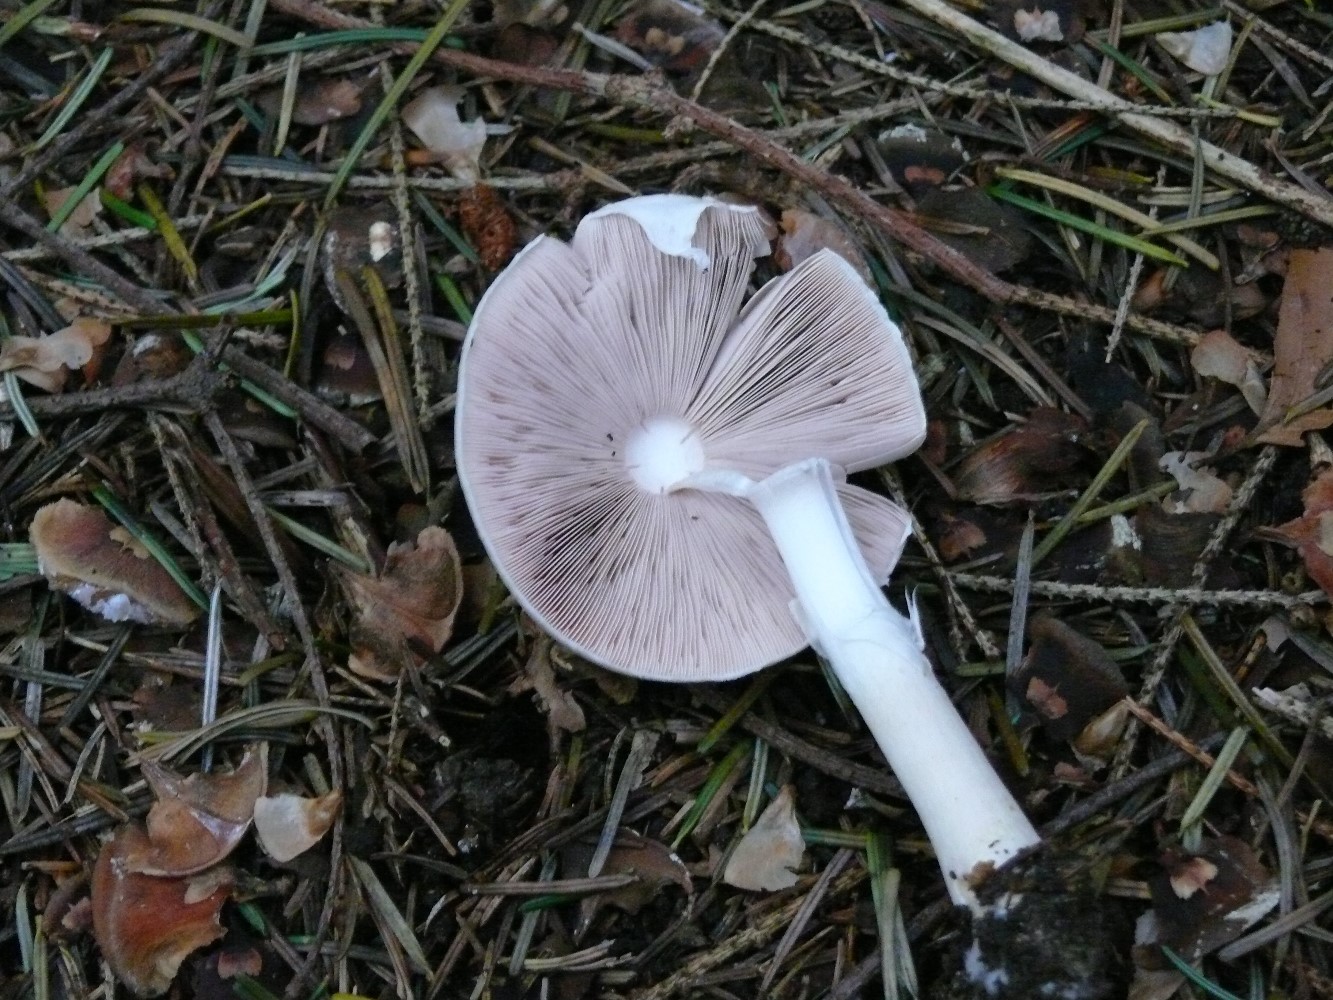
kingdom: Fungi
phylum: Basidiomycota
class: Agaricomycetes
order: Agaricales
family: Agaricaceae
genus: Agaricus
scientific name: Agaricus impudicus
